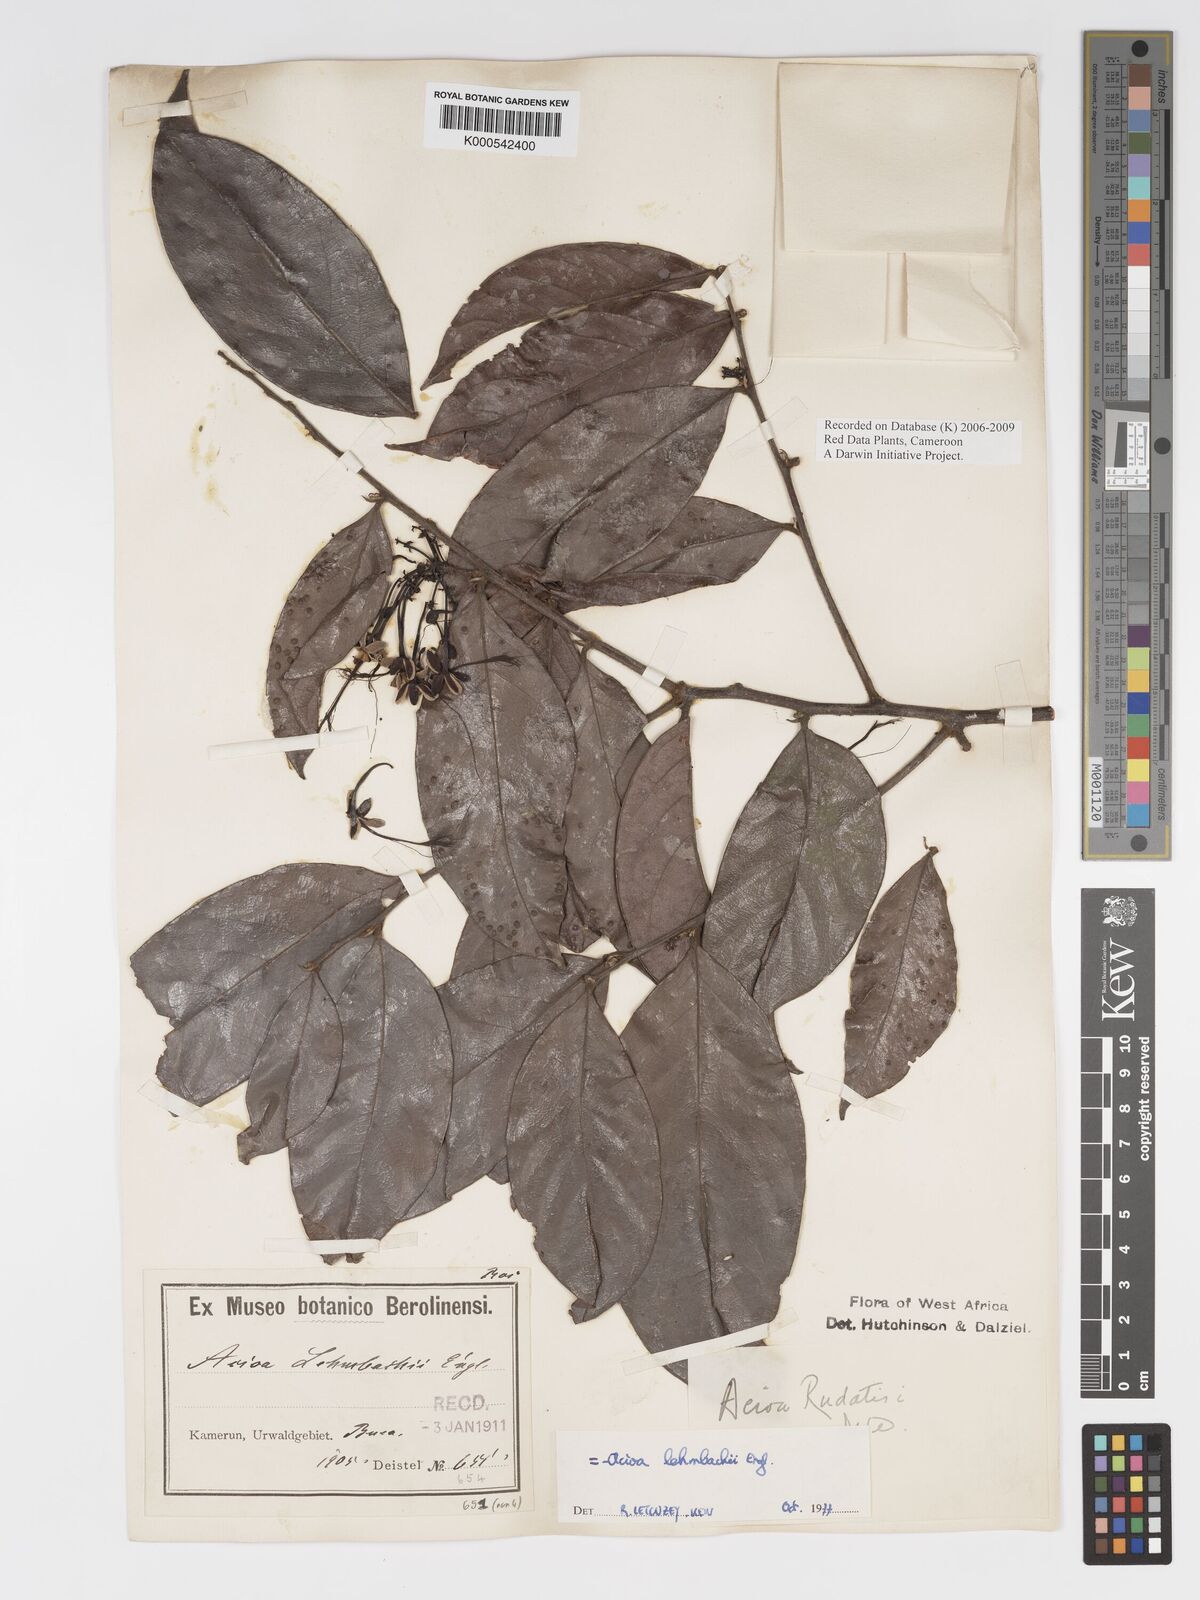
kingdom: Plantae
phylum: Tracheophyta
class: Magnoliopsida
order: Malpighiales
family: Chrysobalanaceae
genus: Dactyladenia
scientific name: Dactyladenia lehmbachii
